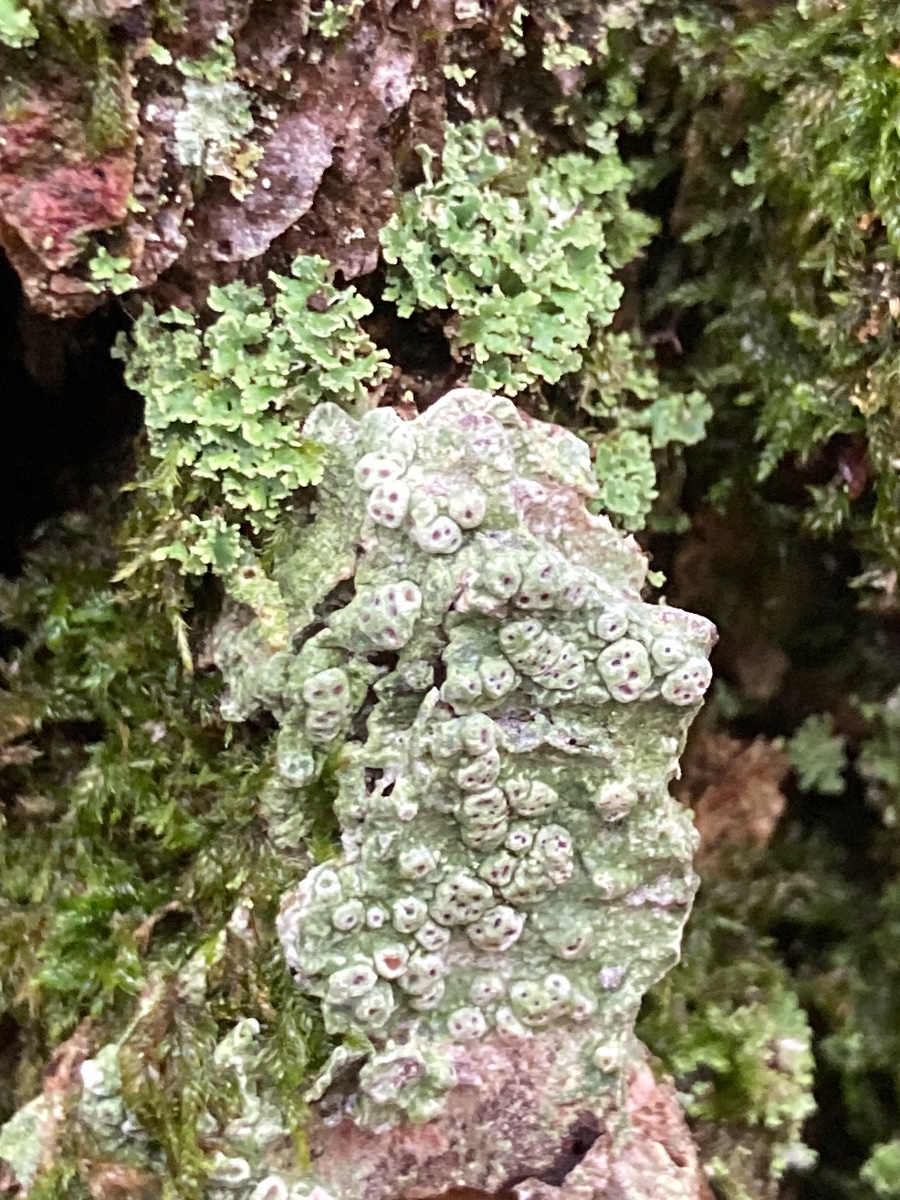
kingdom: Fungi
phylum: Ascomycota
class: Lecanoromycetes
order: Pertusariales
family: Pertusariaceae
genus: Pertusaria
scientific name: Pertusaria pertusa
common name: almindelig prikvortelav
